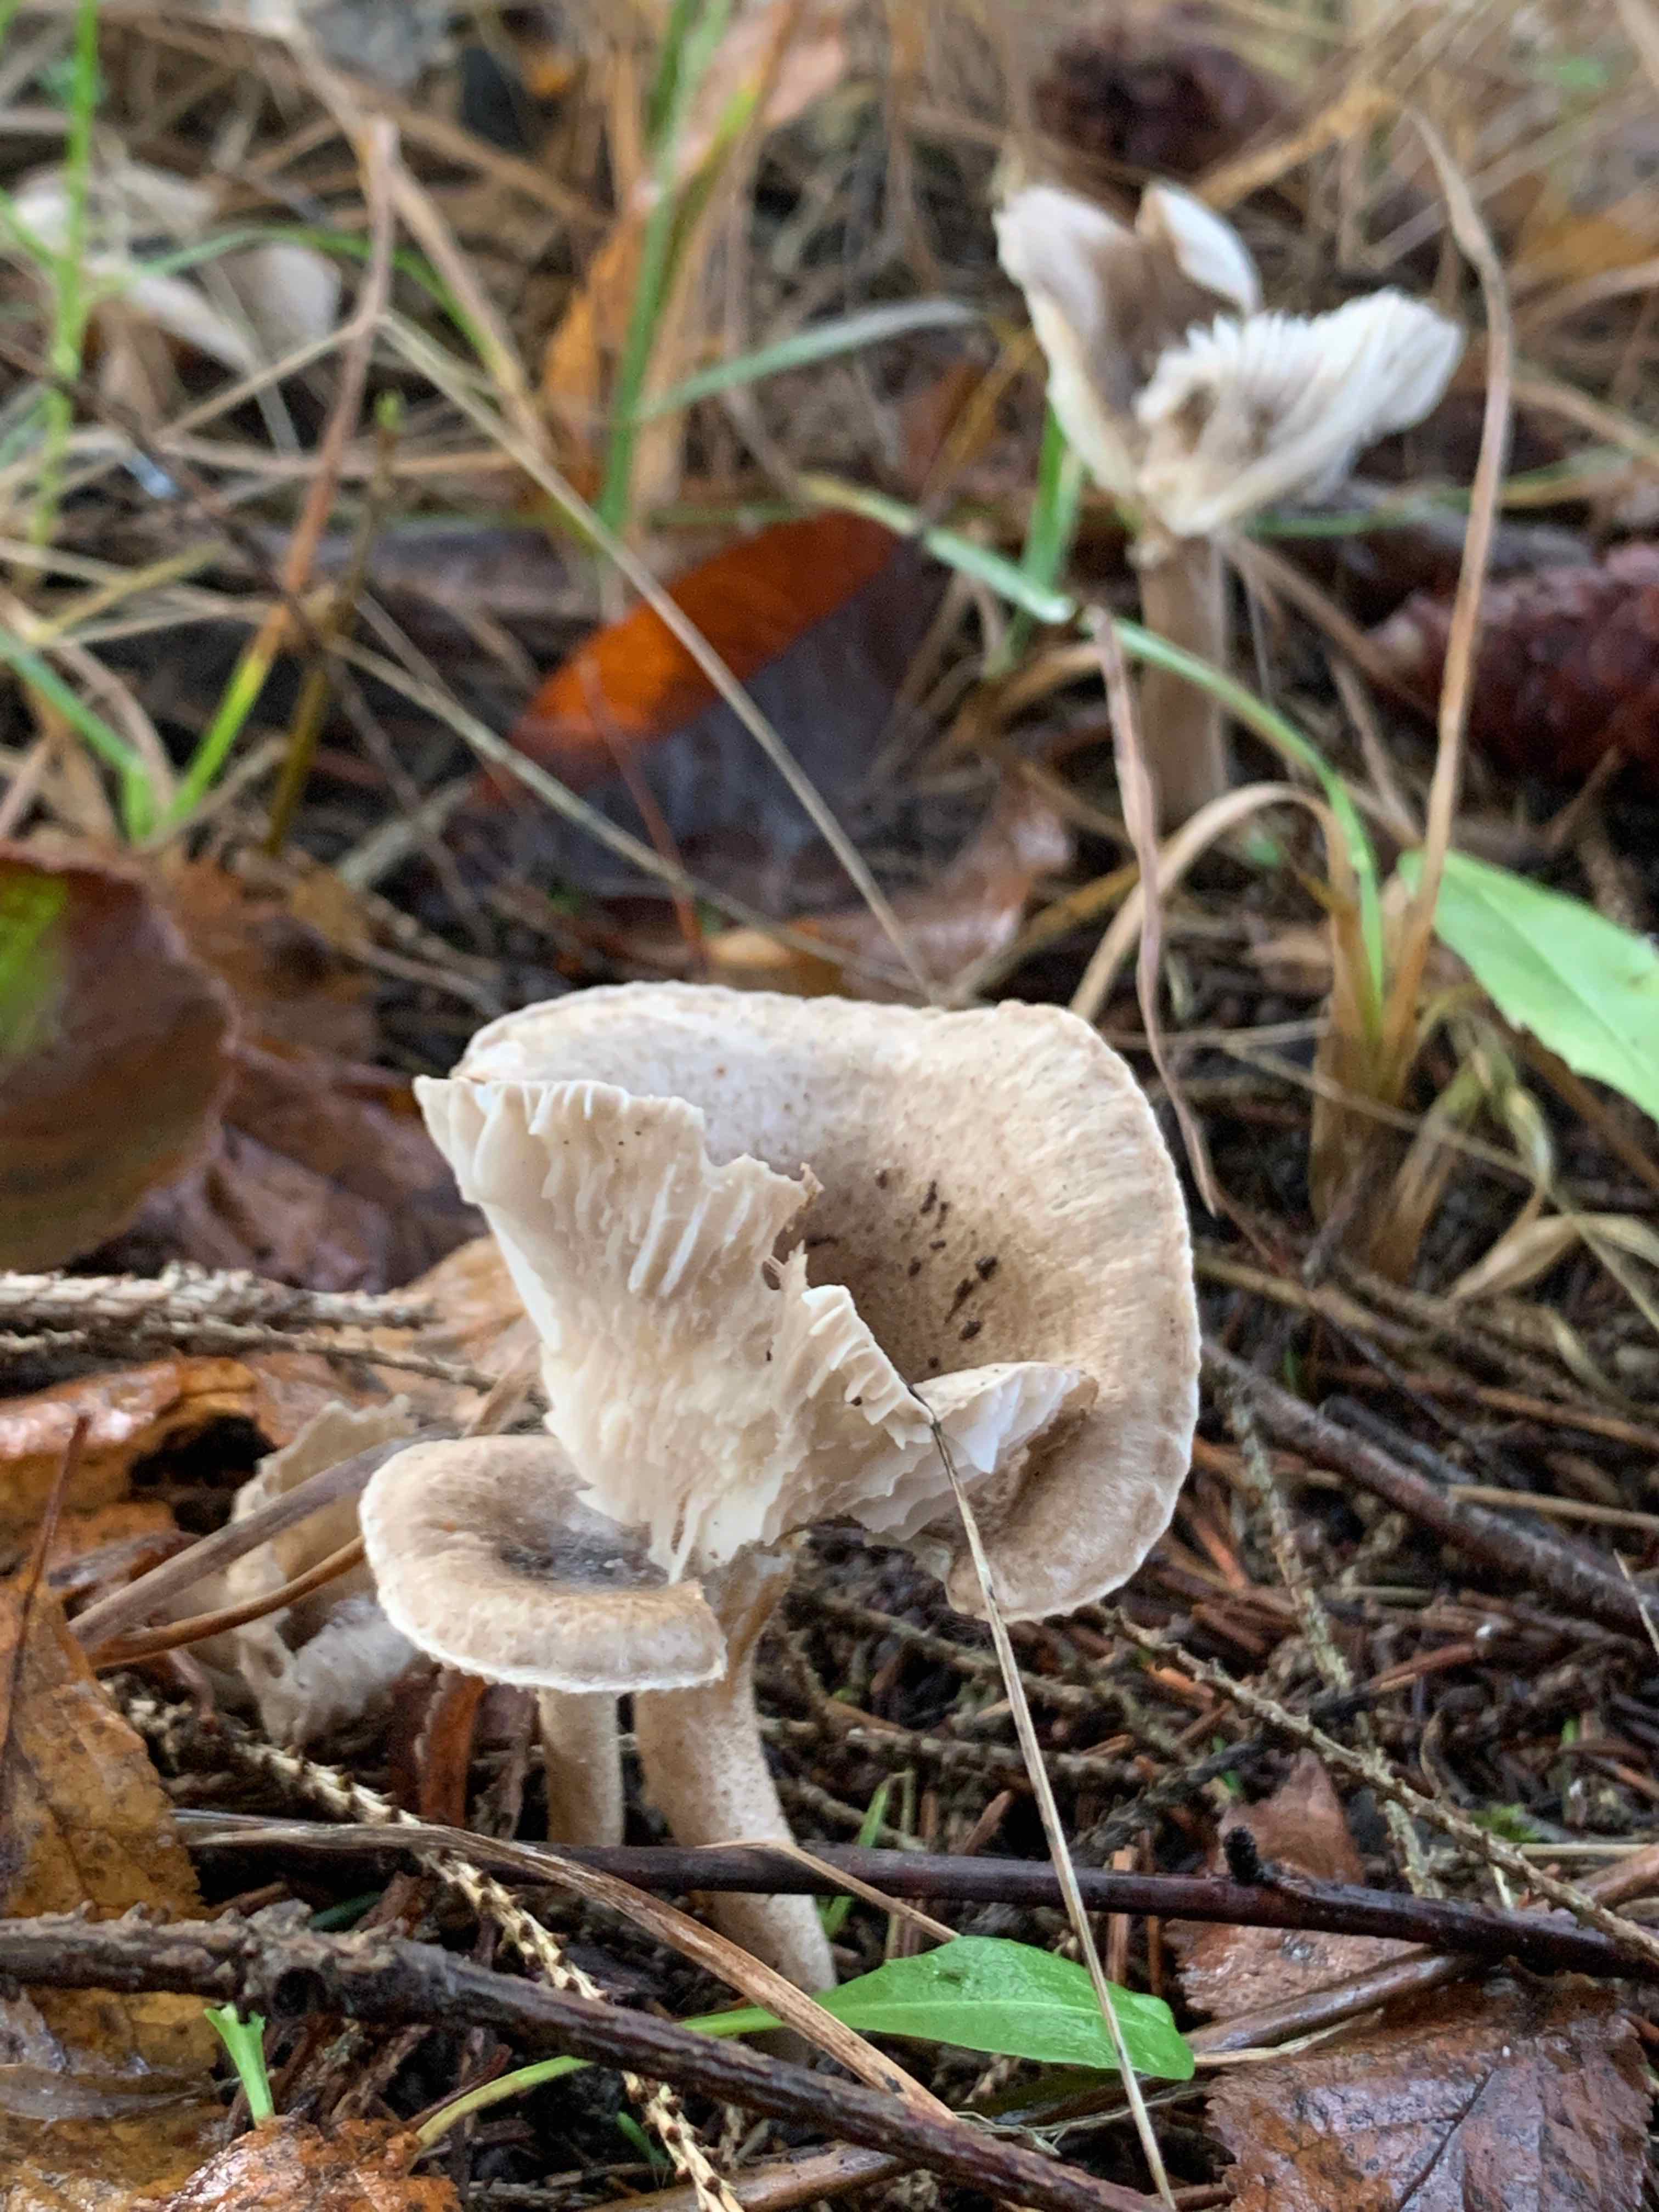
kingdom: Fungi
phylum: Basidiomycota
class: Agaricomycetes
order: Agaricales
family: Hygrophoraceae
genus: Hygrophorus
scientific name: Hygrophorus agathosmus
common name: vellugtende sneglehat
